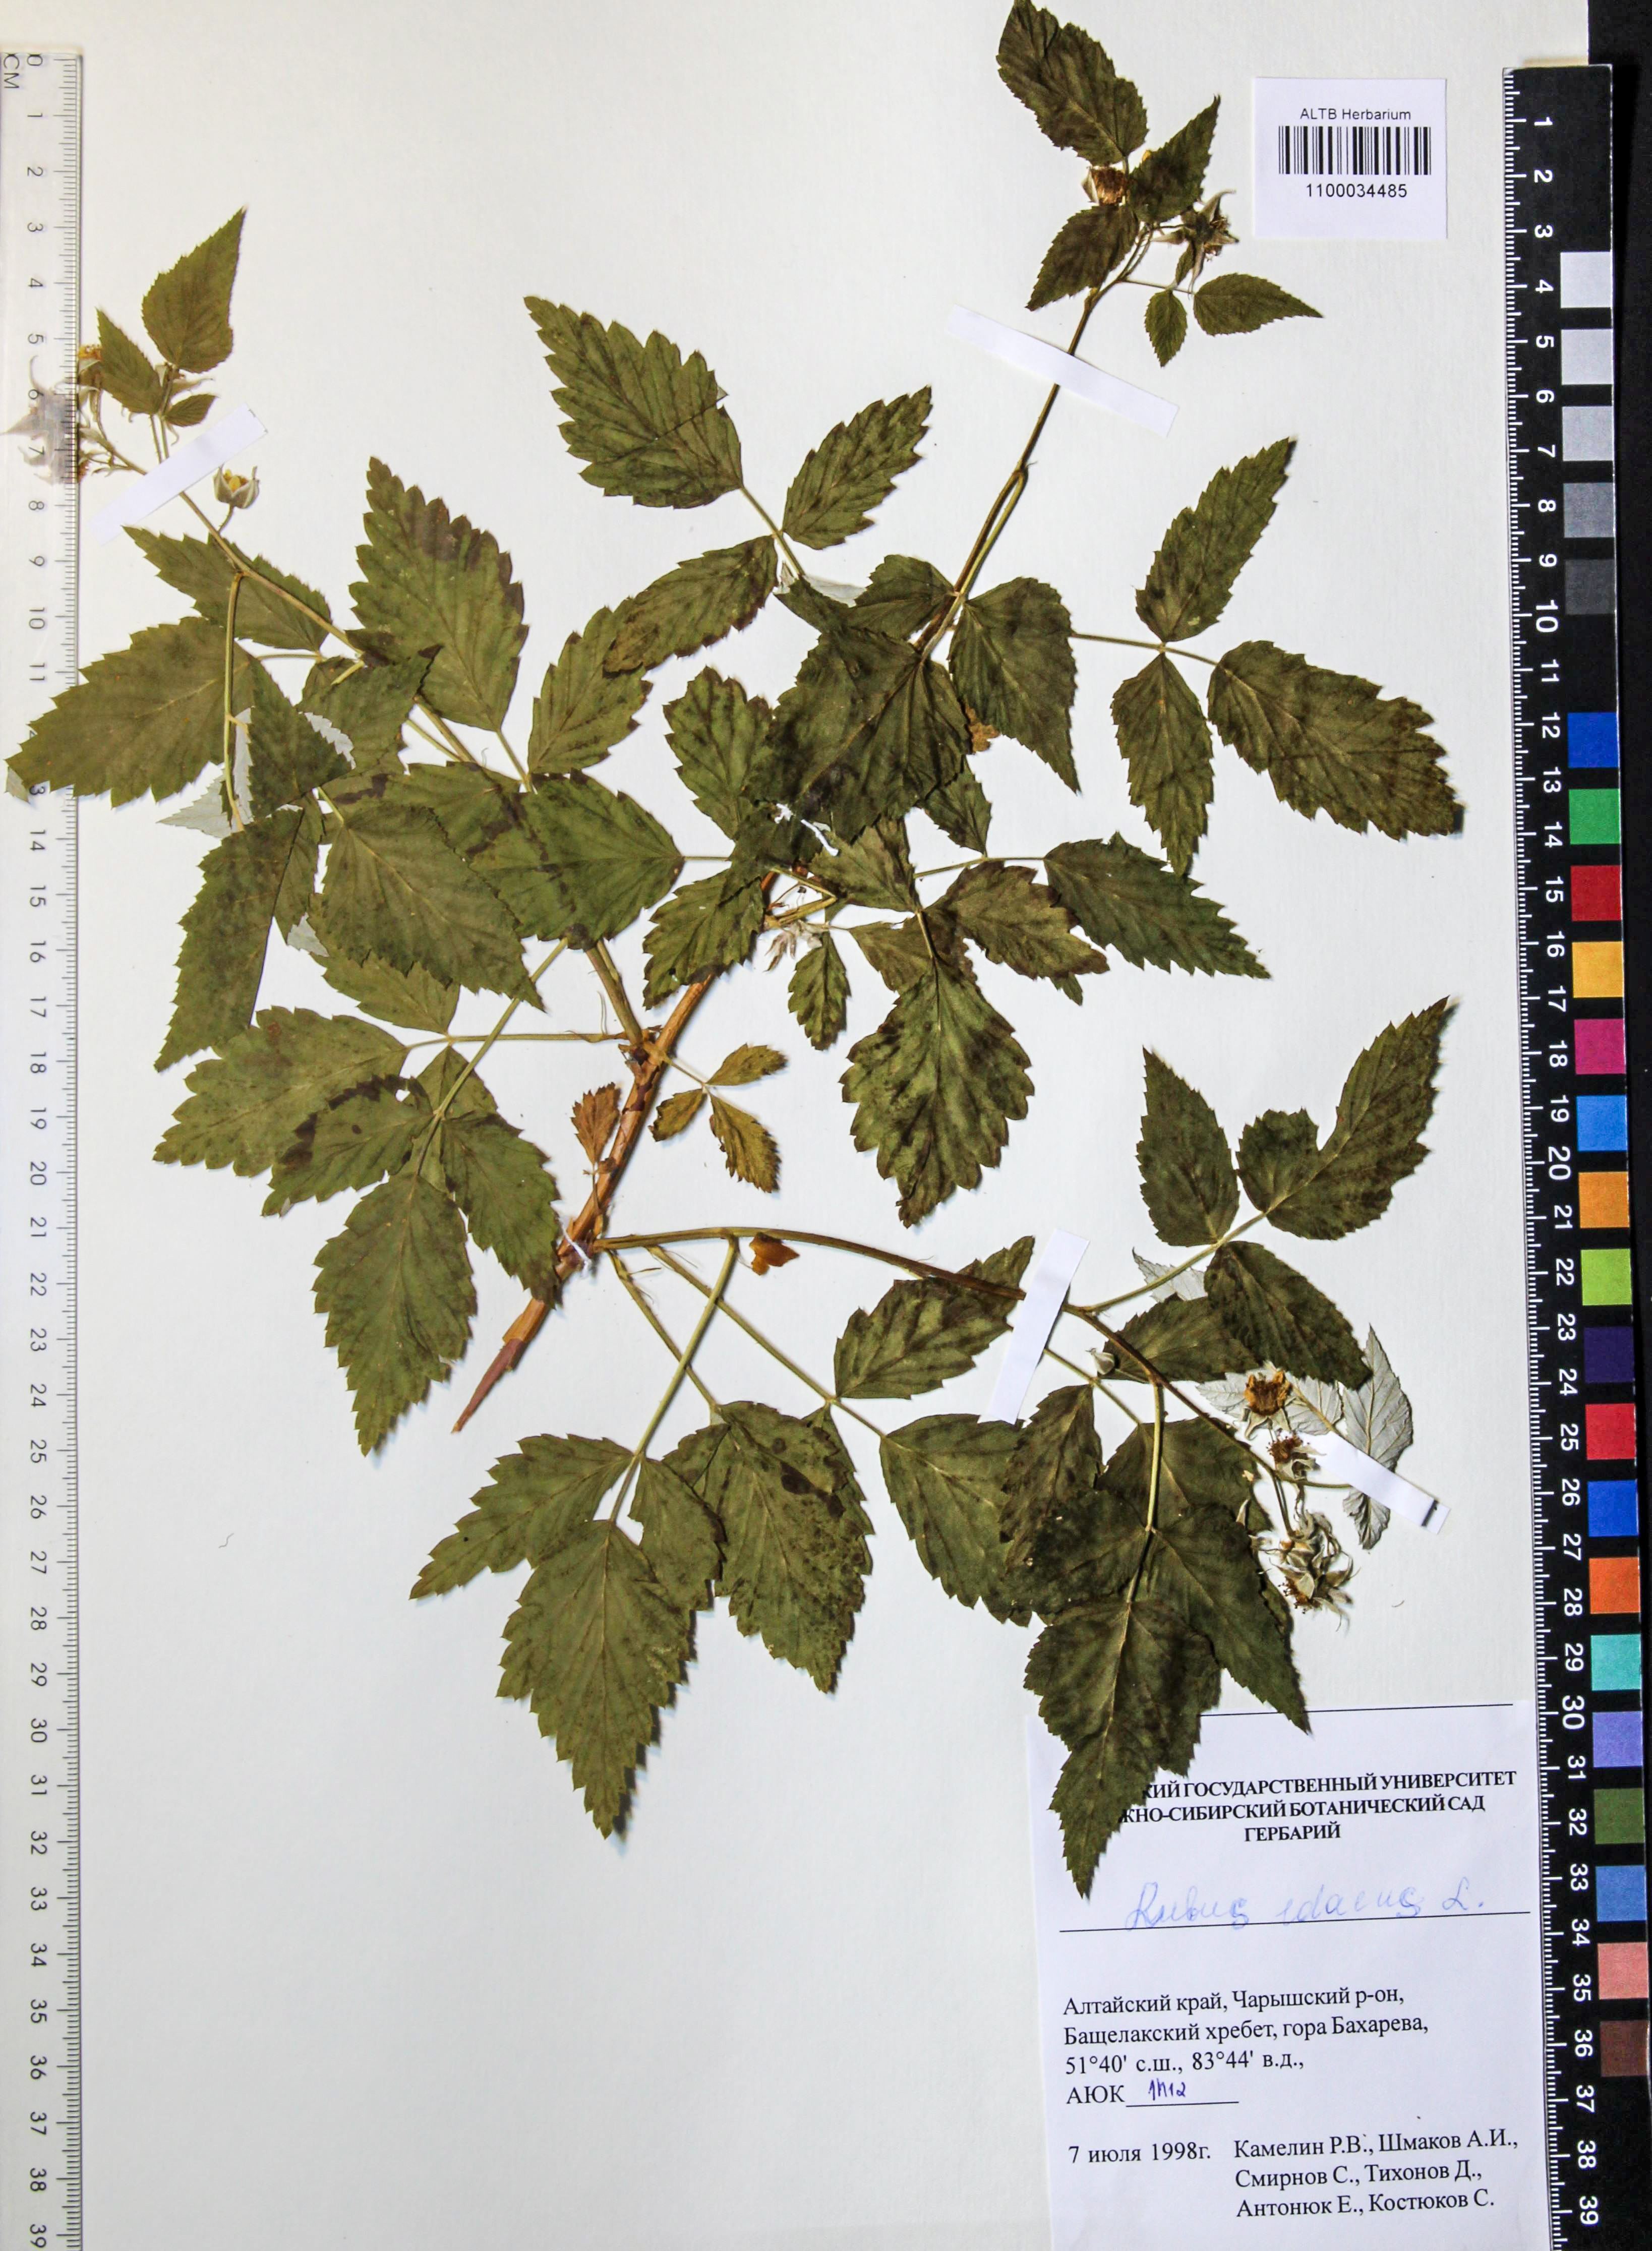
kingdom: Plantae
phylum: Tracheophyta
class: Magnoliopsida
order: Rosales
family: Rosaceae
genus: Rubus
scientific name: Rubus idaeus
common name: Raspberry
